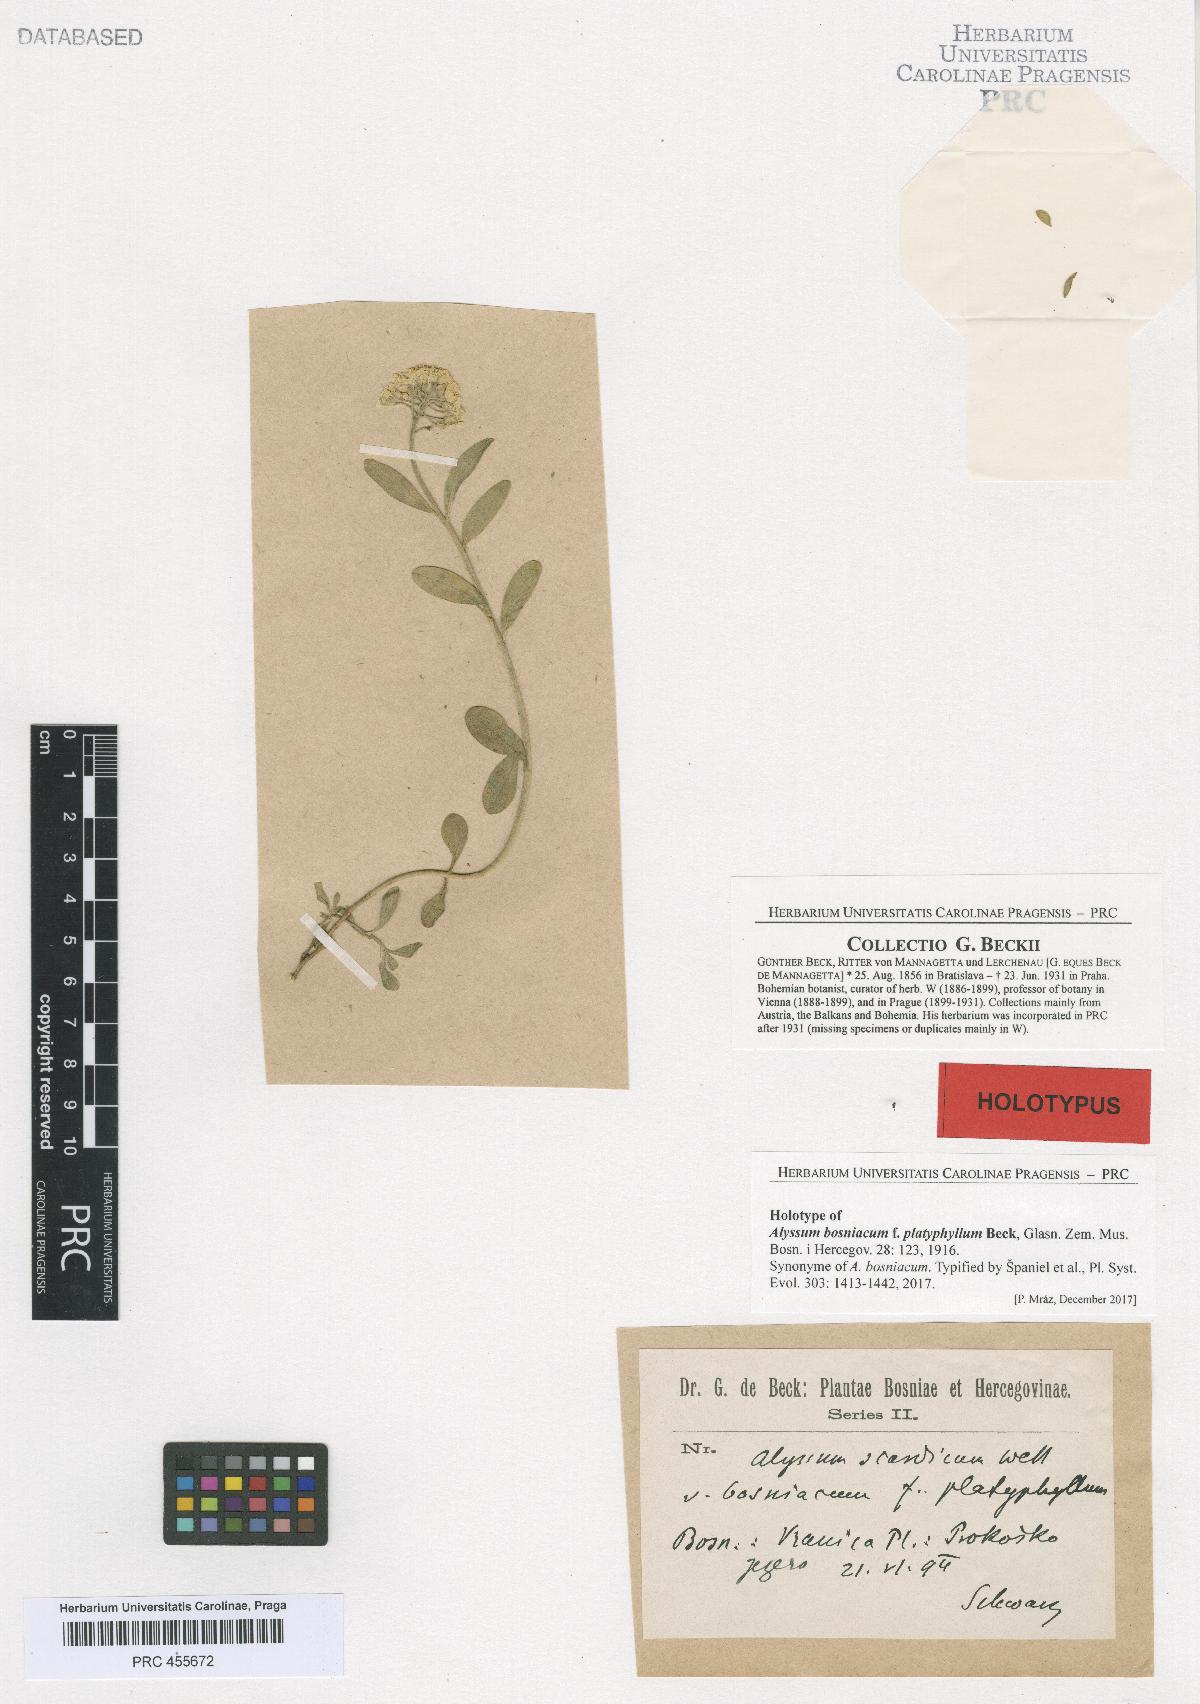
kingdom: Plantae
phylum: Tracheophyta
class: Magnoliopsida
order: Brassicales
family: Brassicaceae
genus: Alyssum
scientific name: Alyssum bosniacum
